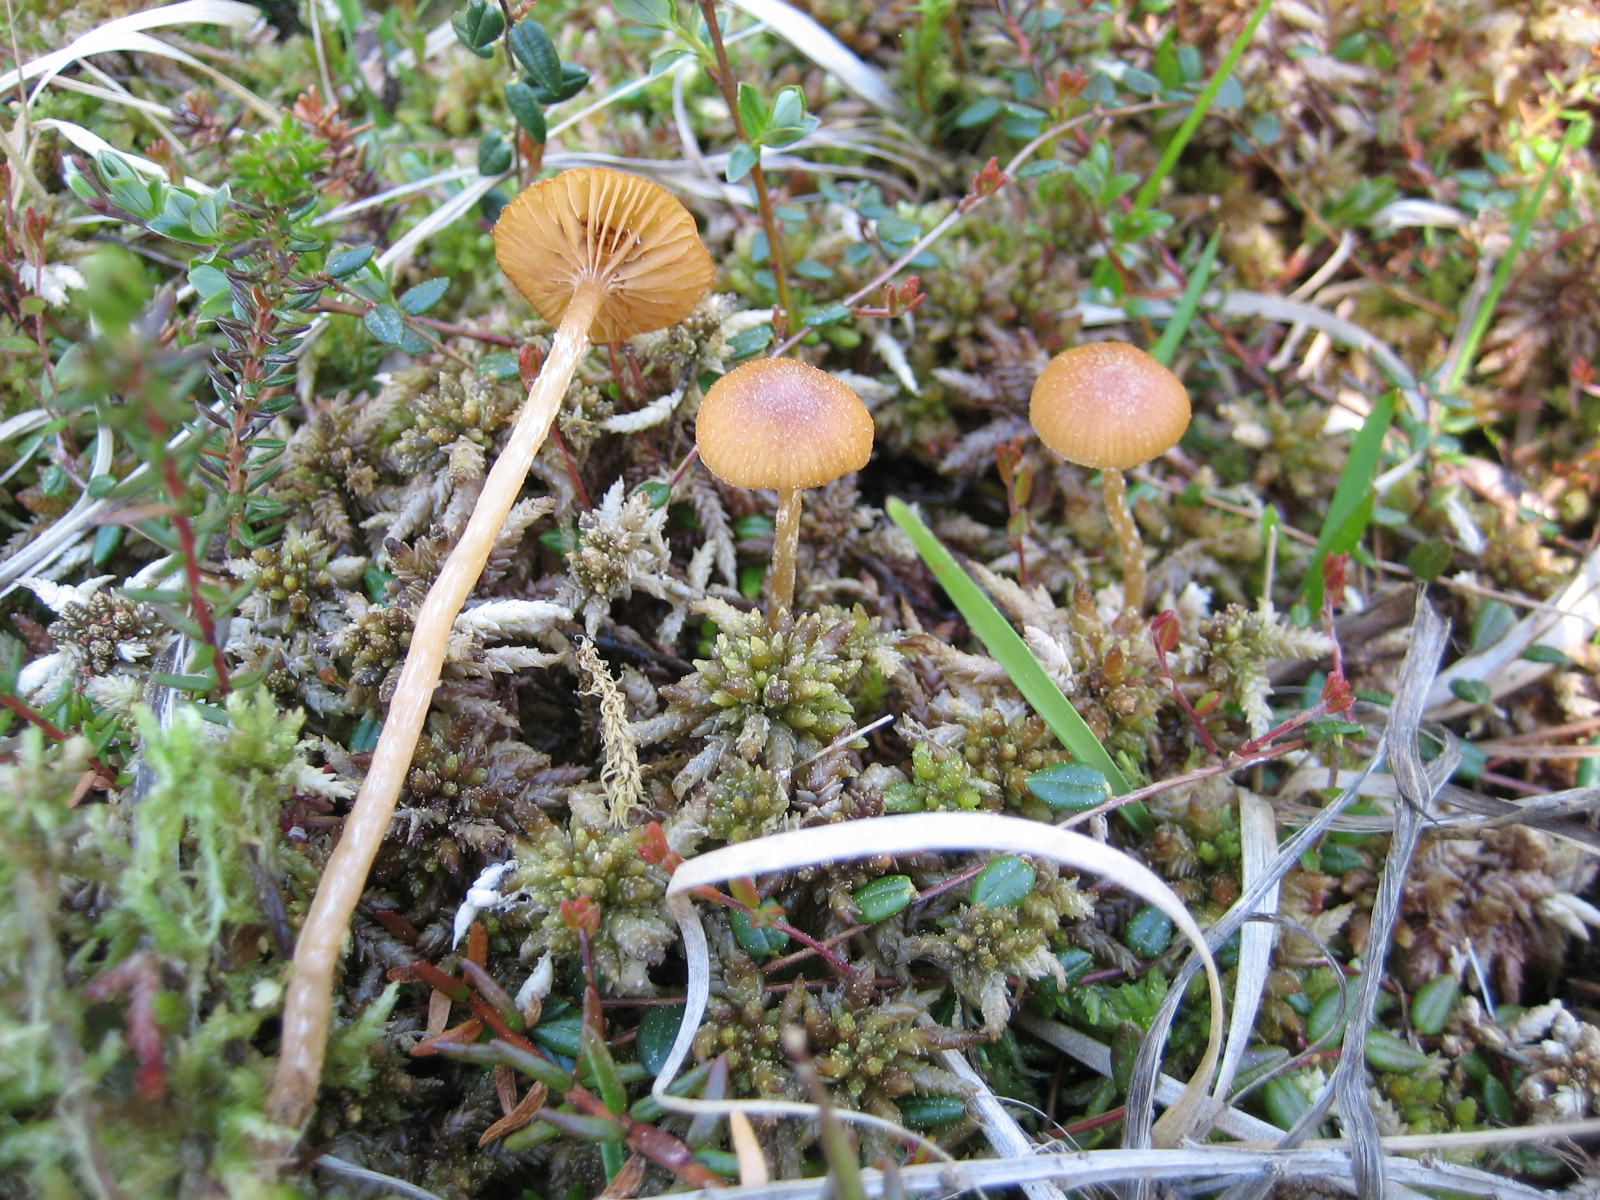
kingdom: Fungi
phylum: Basidiomycota
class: Agaricomycetes
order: Agaricales
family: Hymenogastraceae
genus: Galerina
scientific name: Galerina paludosa
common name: mose-hjelmhat
